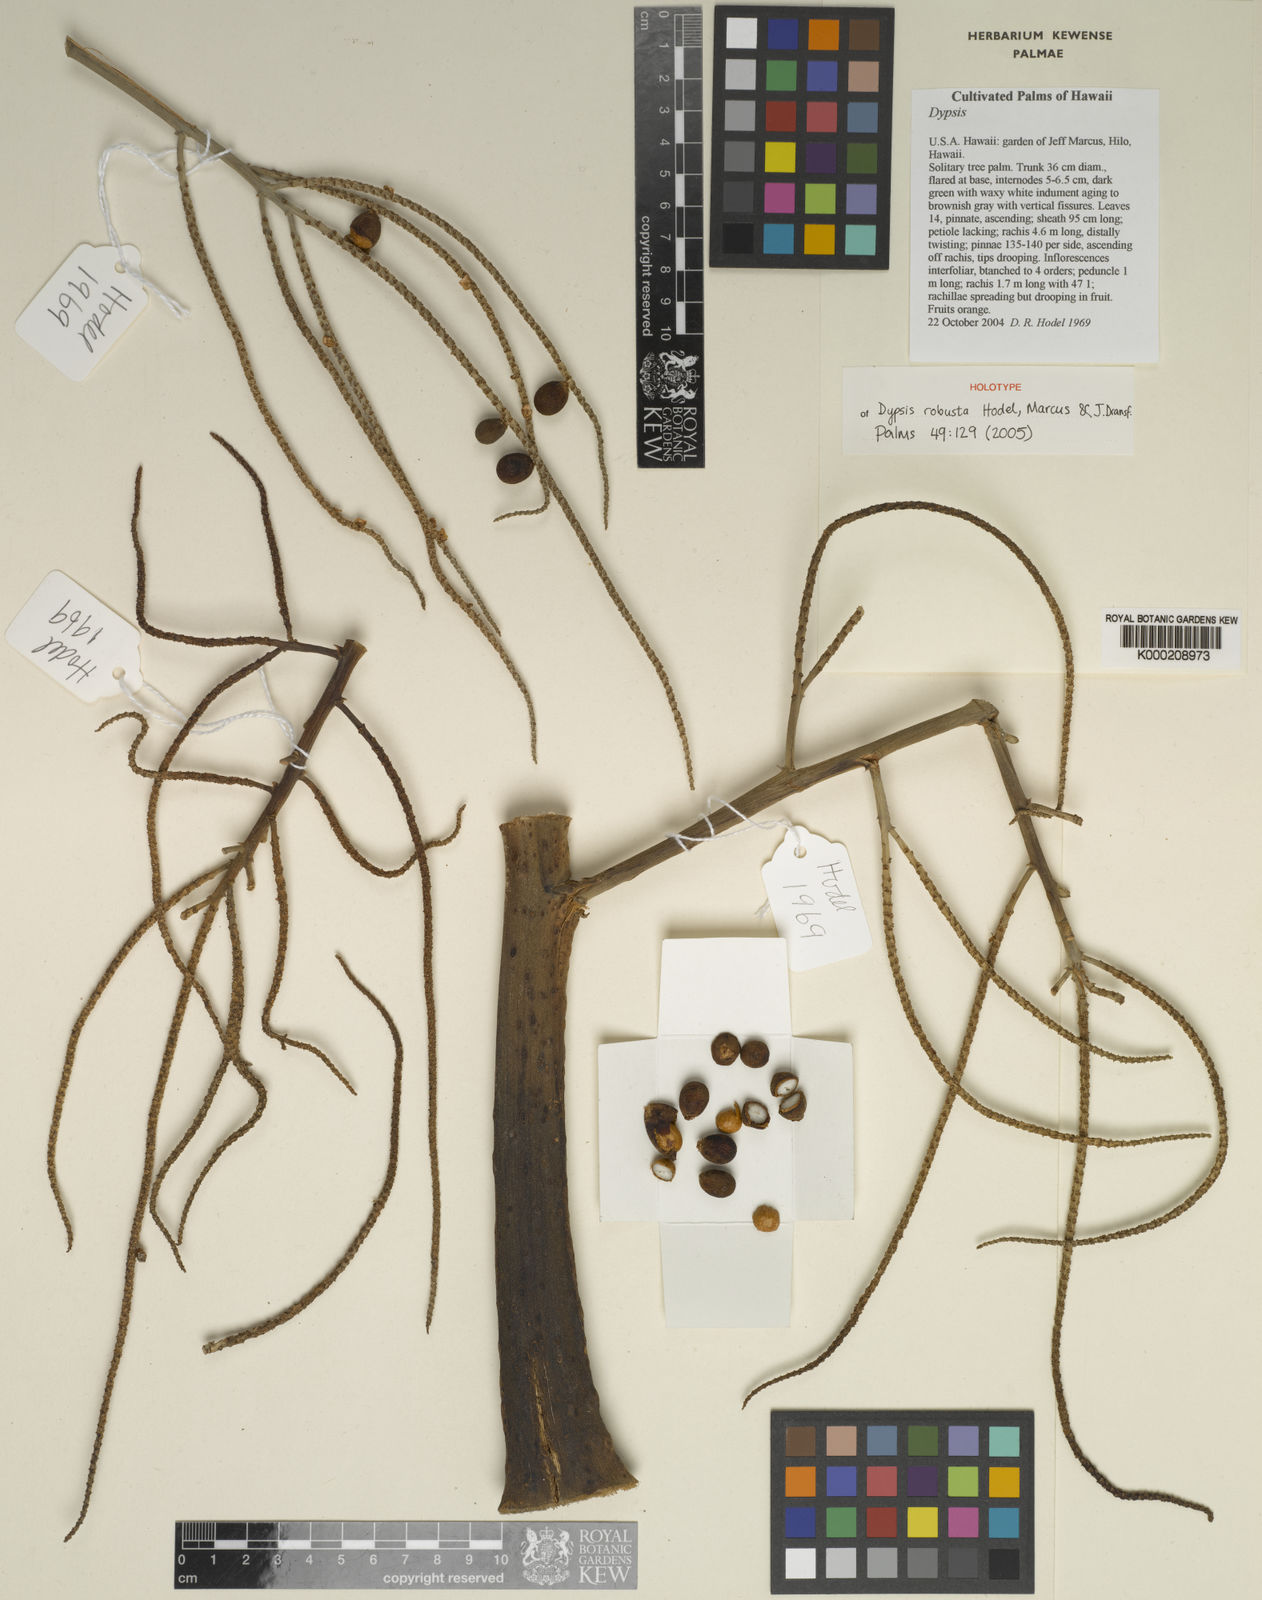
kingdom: Plantae
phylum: Tracheophyta
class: Liliopsida
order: Arecales
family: Arecaceae
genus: Dypsis
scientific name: Dypsis
